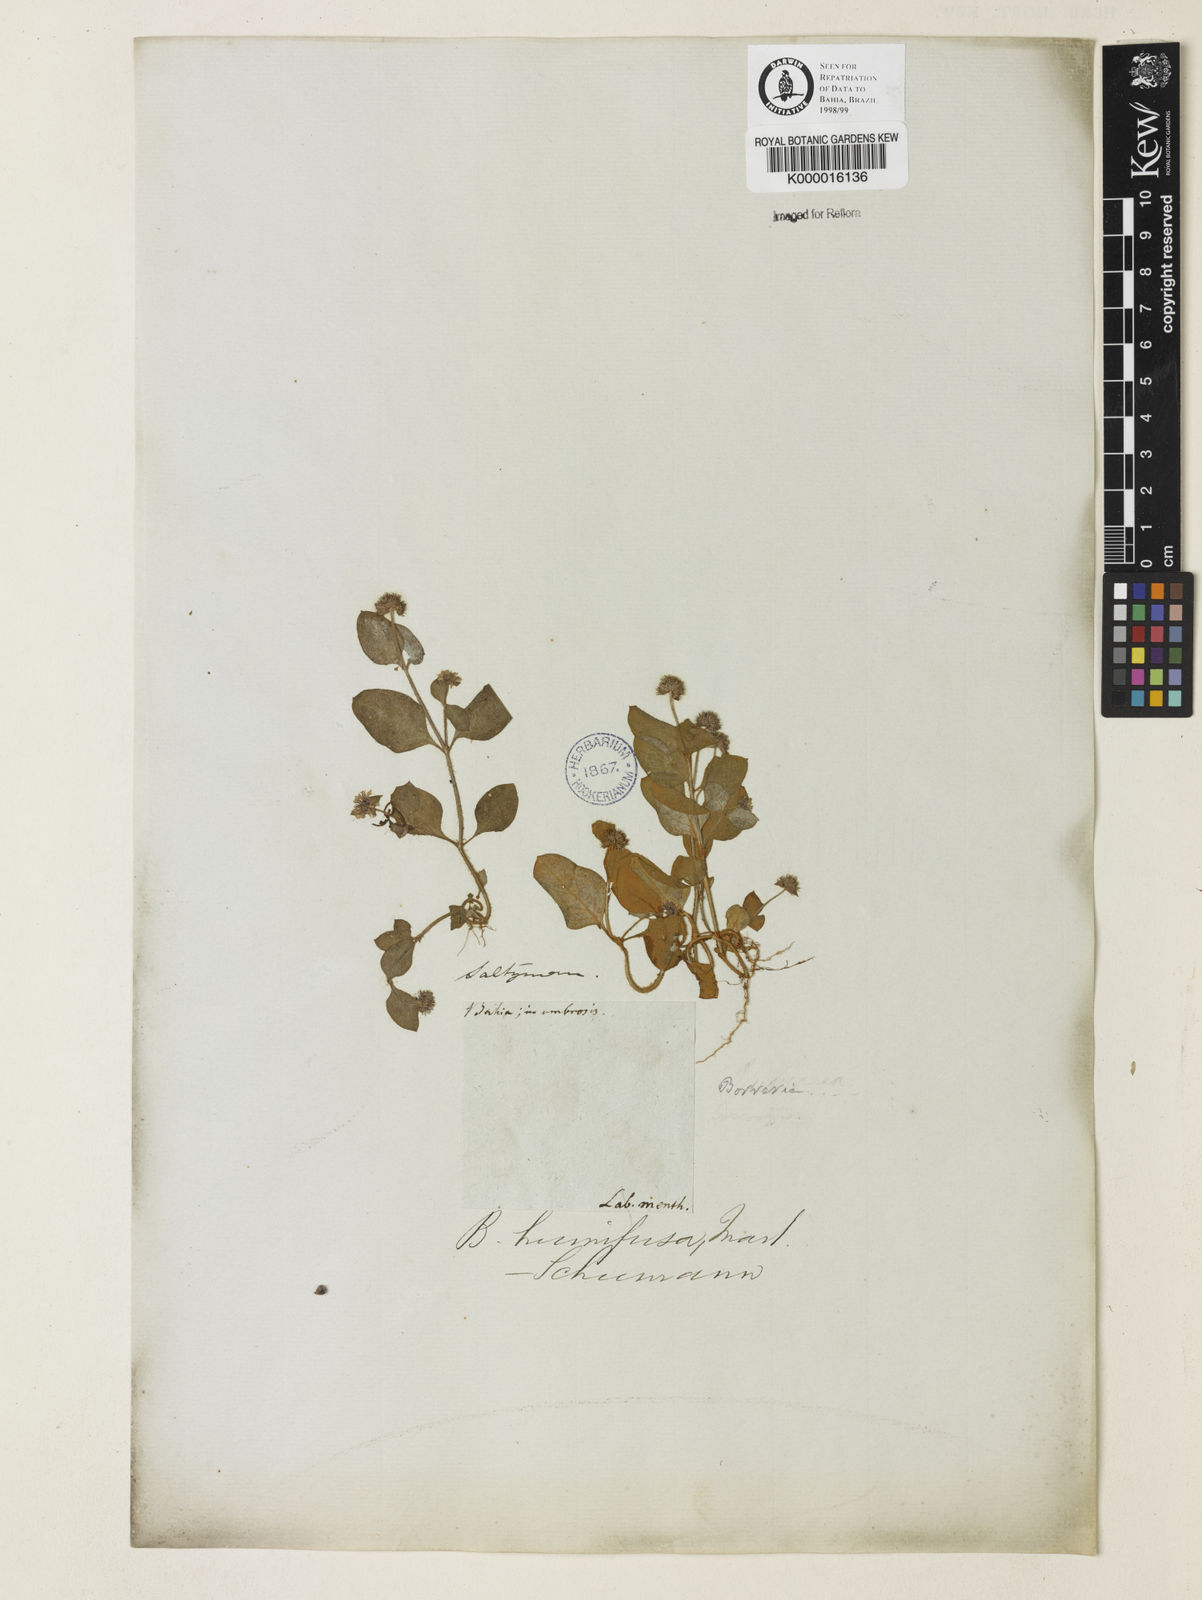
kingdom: Plantae
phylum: Tracheophyta
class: Magnoliopsida
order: Gentianales
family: Rubiaceae
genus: Spermacoce
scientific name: Spermacoce scabiosoides
